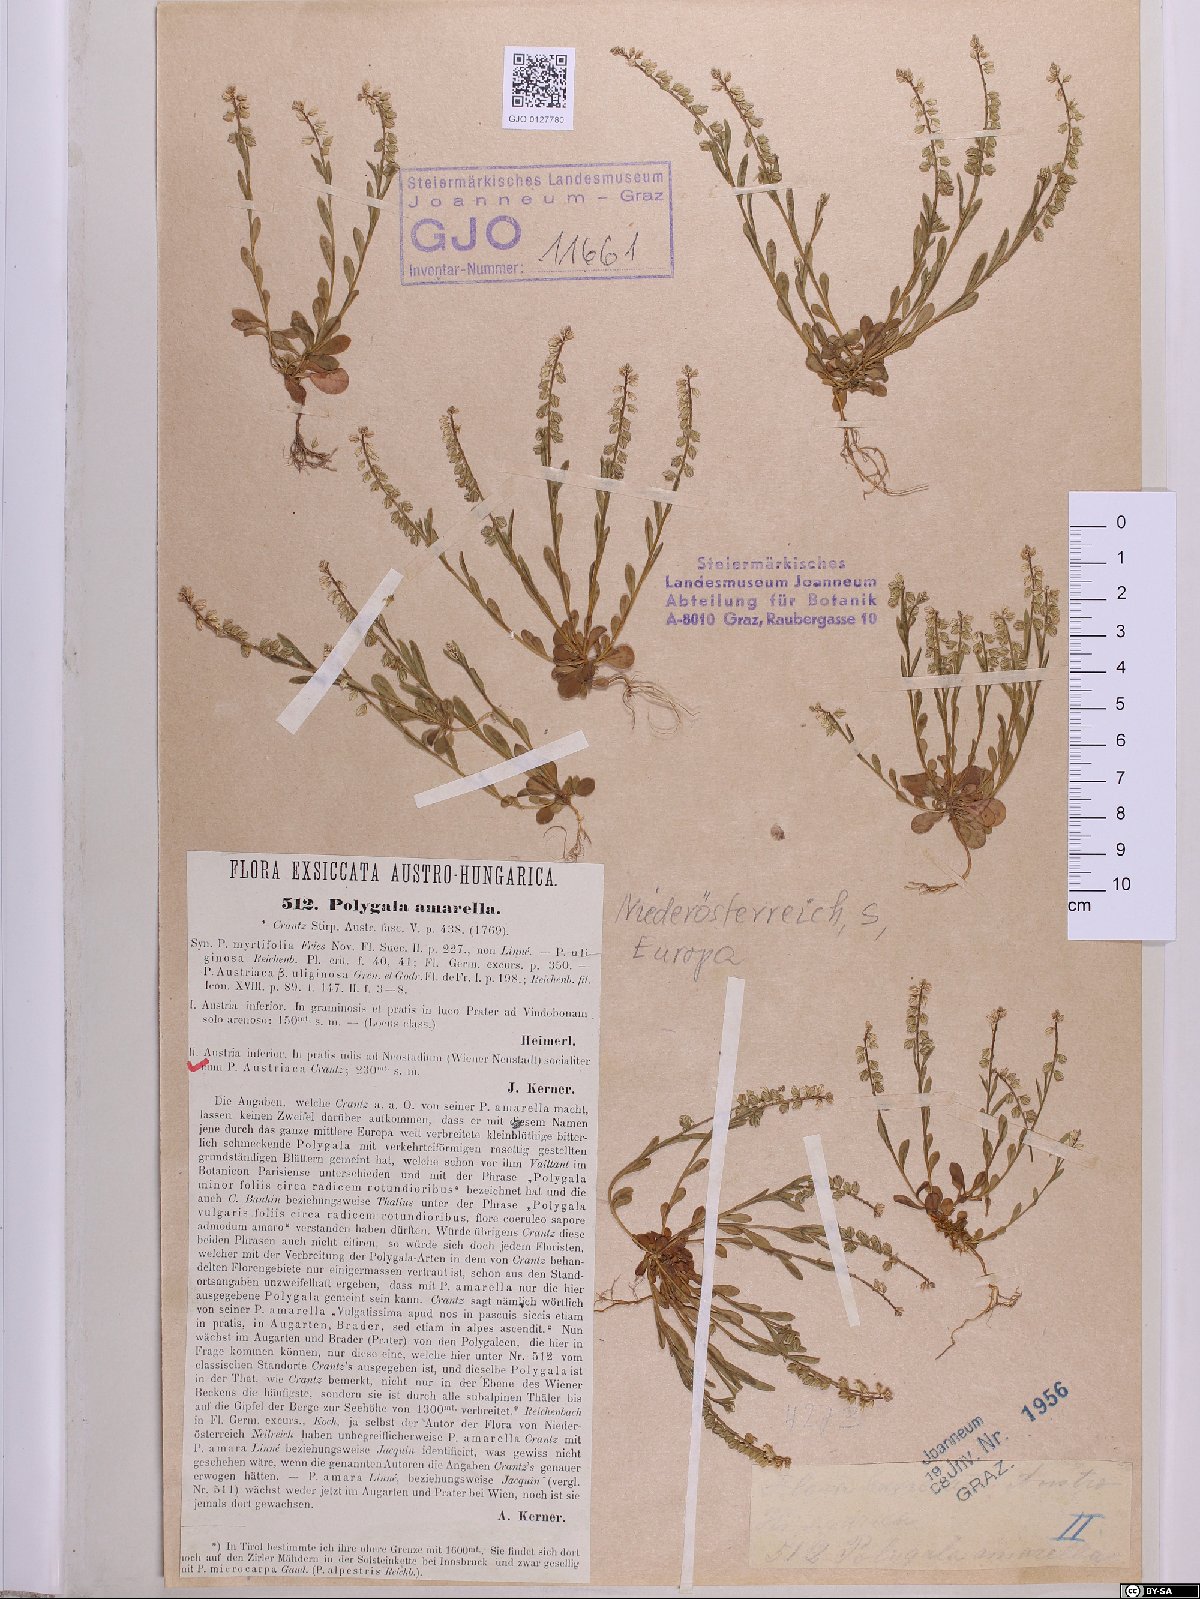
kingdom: Plantae
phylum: Tracheophyta
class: Magnoliopsida
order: Fabales
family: Polygalaceae
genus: Polygala
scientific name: Polygala amarella
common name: Dwarf milkwort
